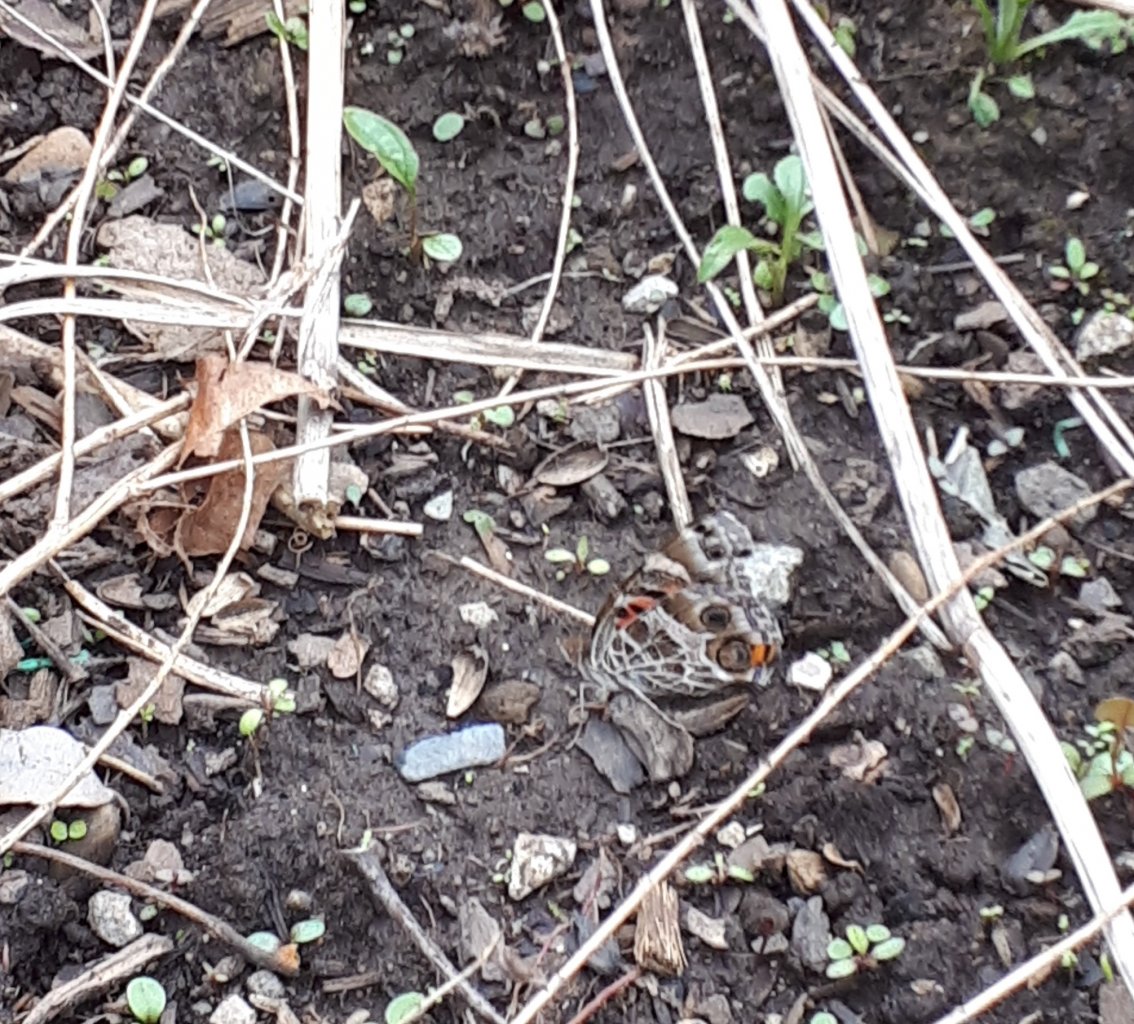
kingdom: Animalia
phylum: Arthropoda
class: Insecta
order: Lepidoptera
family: Nymphalidae
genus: Vanessa
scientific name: Vanessa virginiensis
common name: American Lady
